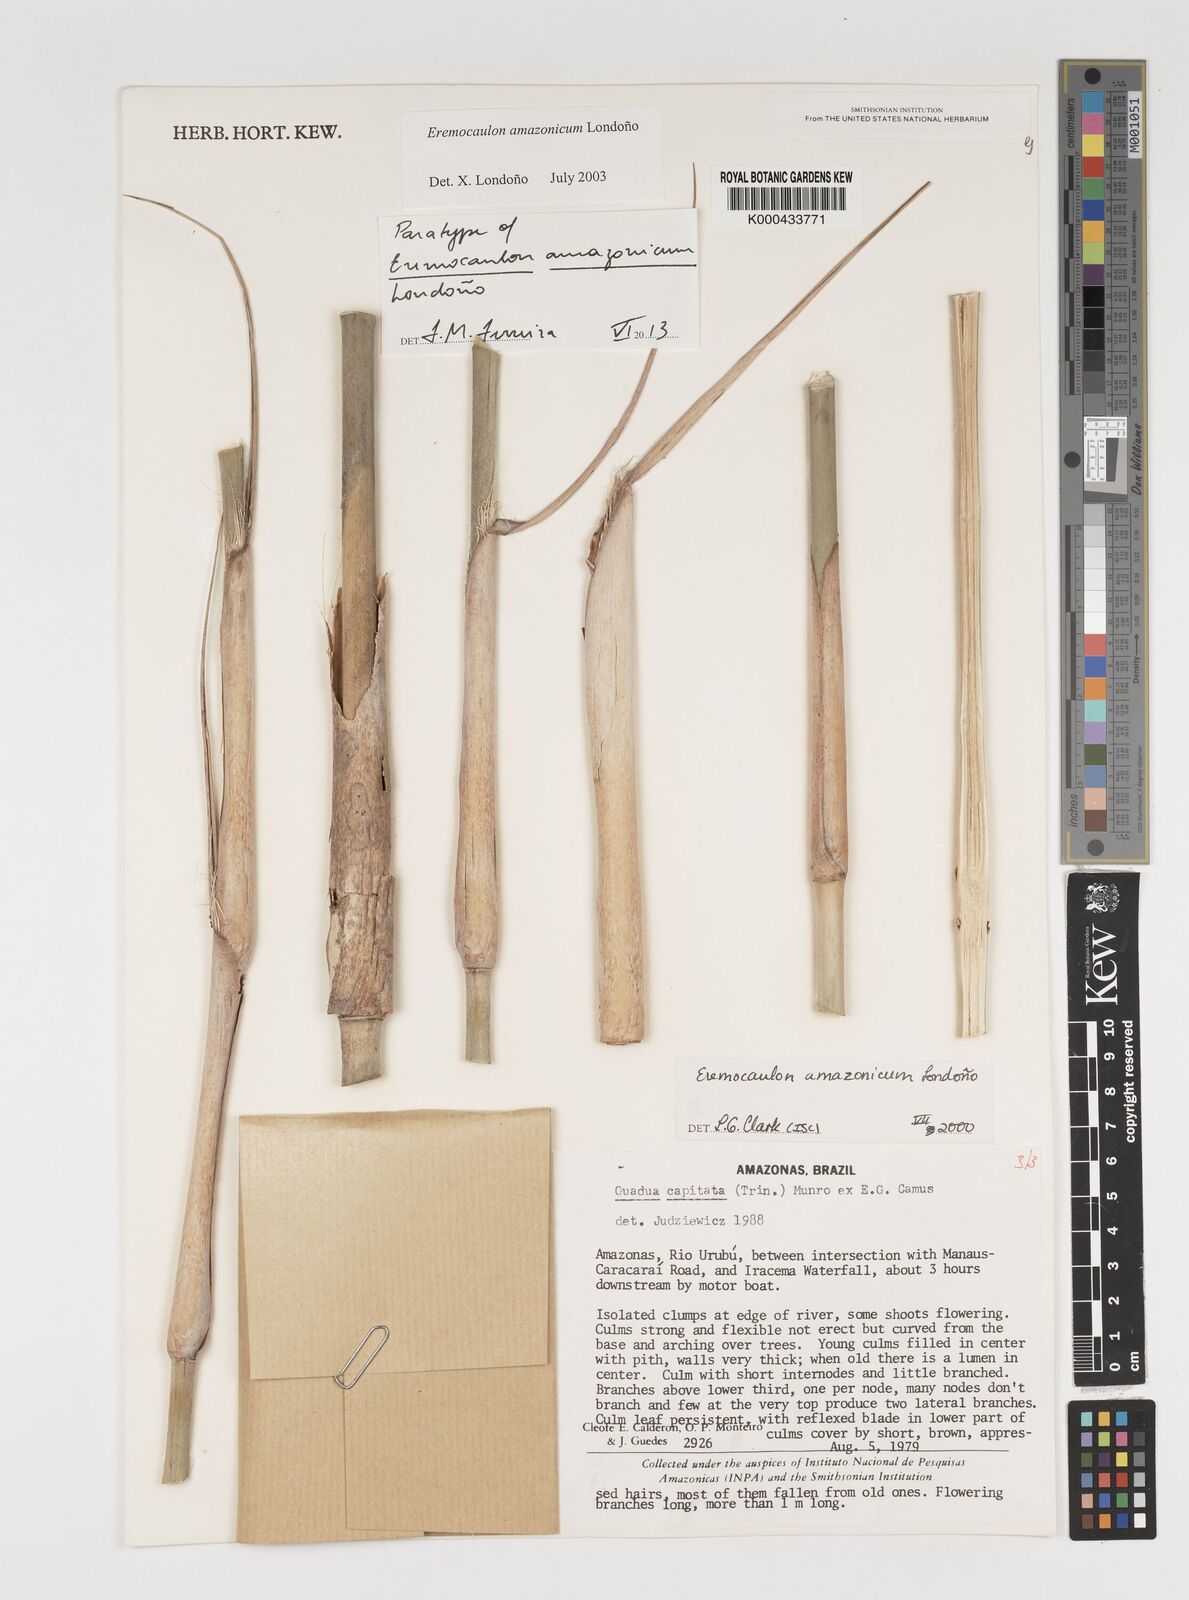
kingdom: Plantae
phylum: Tracheophyta
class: Liliopsida
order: Poales
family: Poaceae
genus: Eremocaulon
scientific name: Eremocaulon
